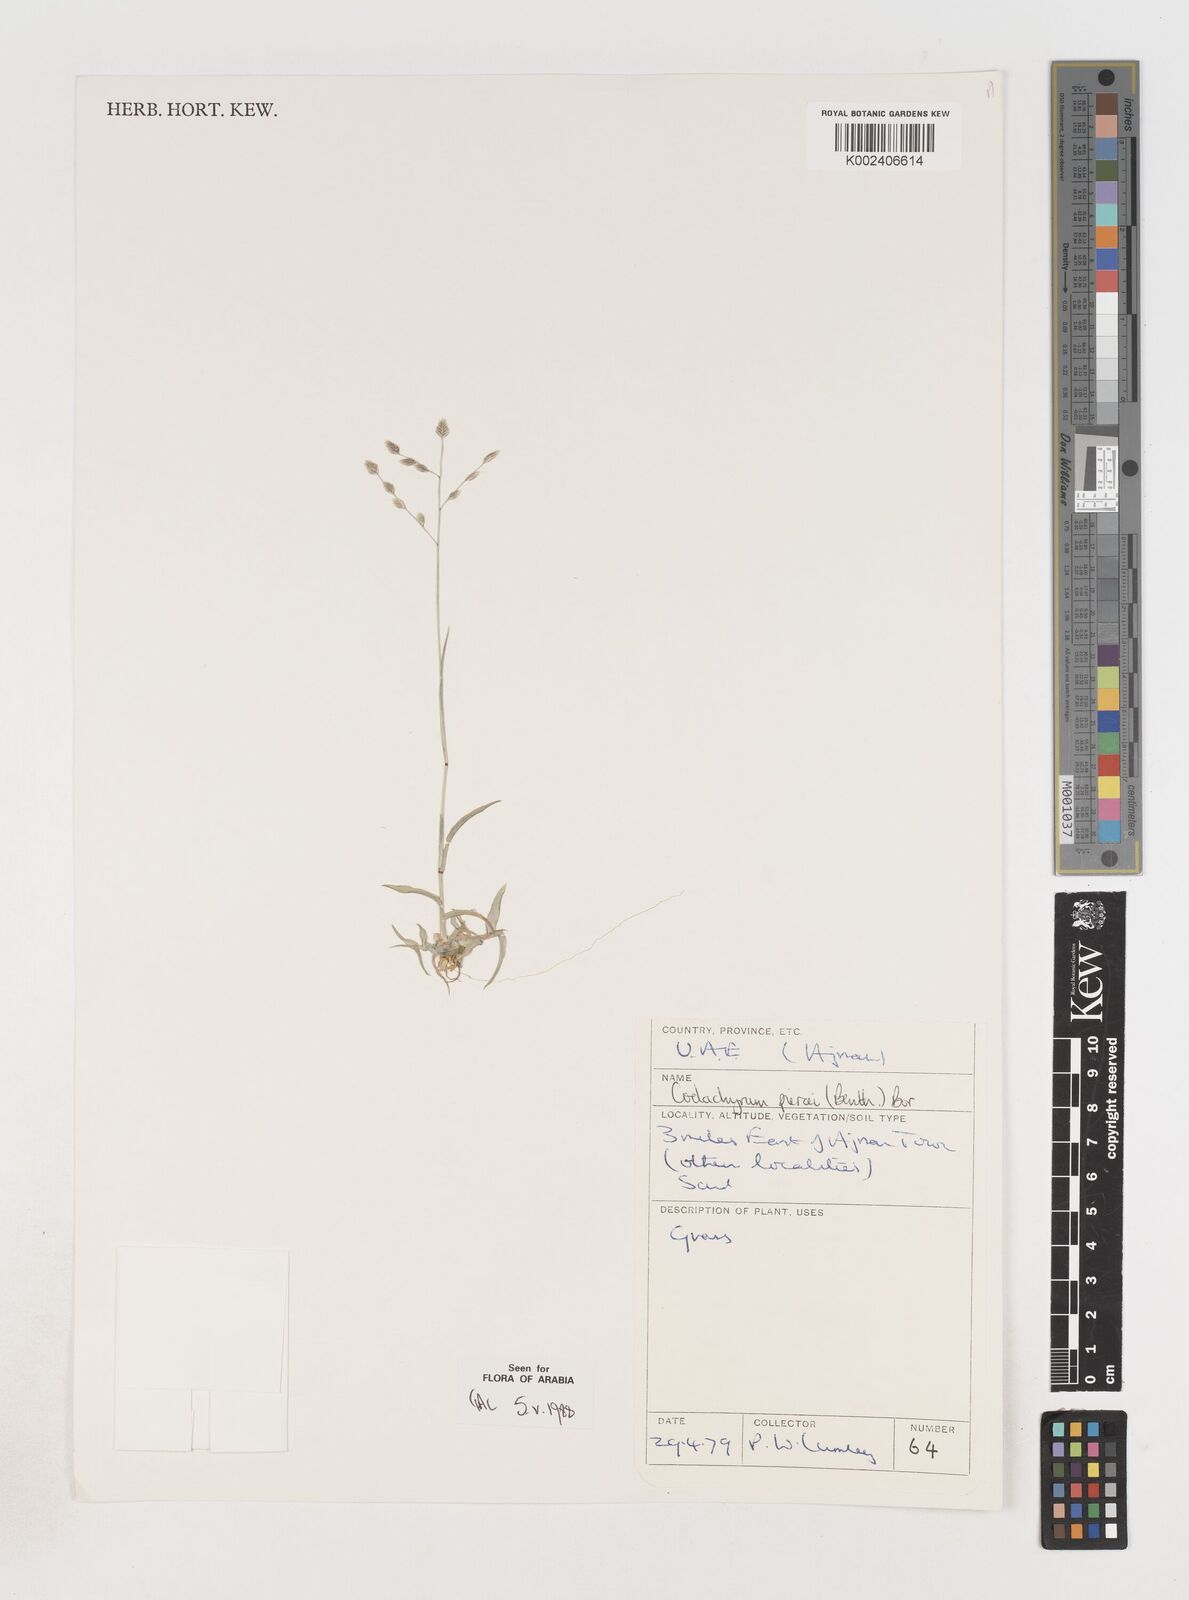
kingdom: Plantae
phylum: Tracheophyta
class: Liliopsida
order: Poales
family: Poaceae
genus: Coelachyrum
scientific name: Coelachyrum piercei
